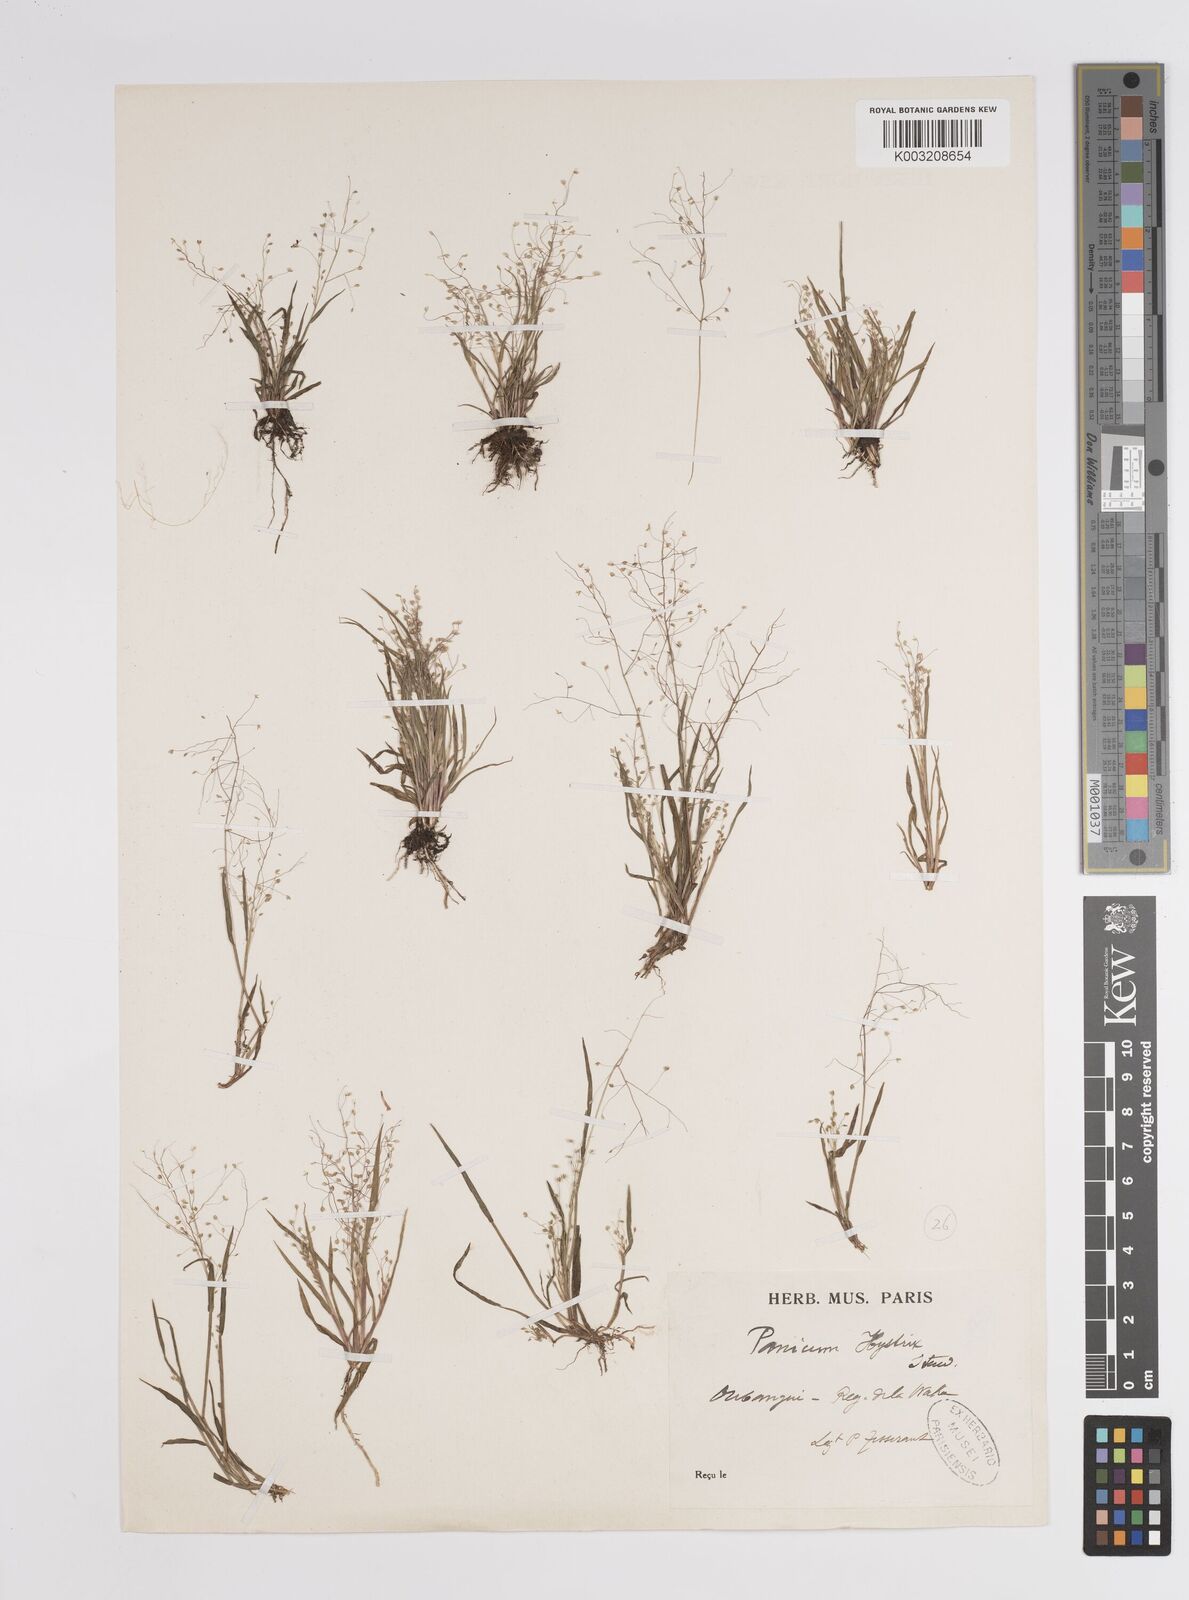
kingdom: Plantae
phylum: Tracheophyta
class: Liliopsida
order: Poales
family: Poaceae
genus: Panicum
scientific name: Panicum
